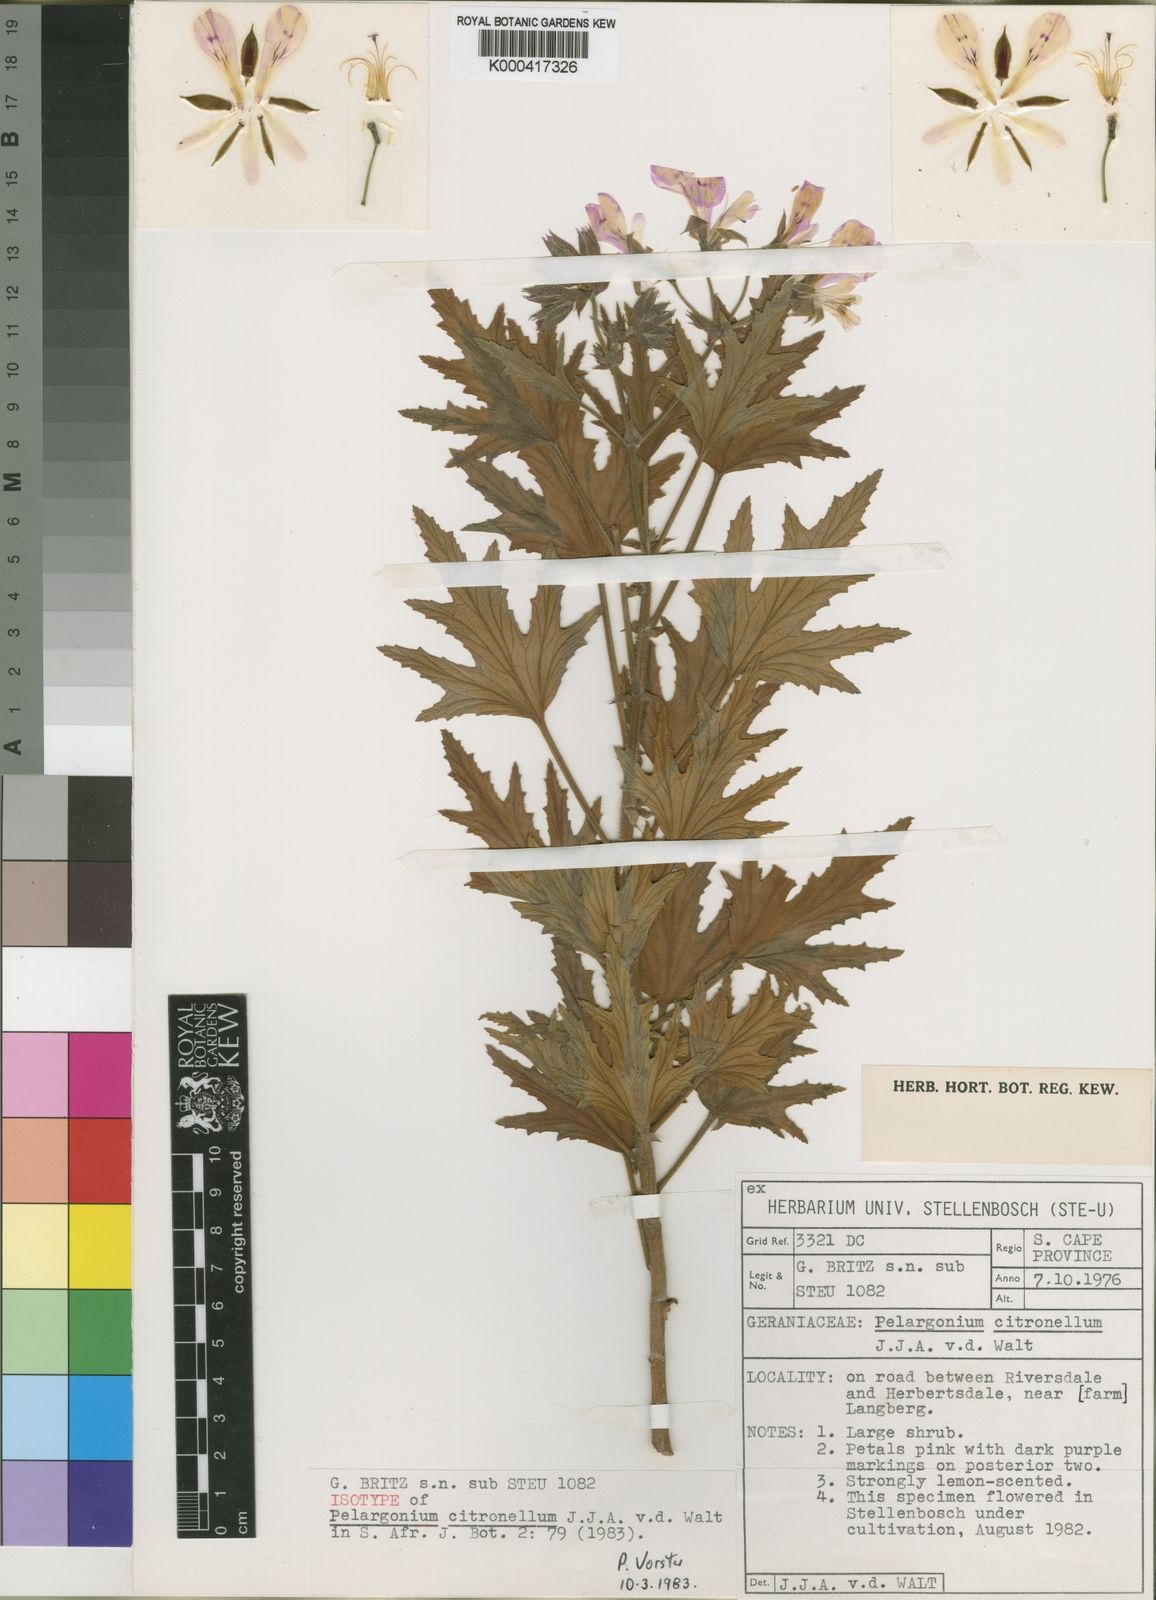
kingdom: Plantae
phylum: Tracheophyta
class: Magnoliopsida
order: Geraniales
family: Geraniaceae
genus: Pelargonium
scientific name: Pelargonium citronellum
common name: Lemon-scent pelargonium
